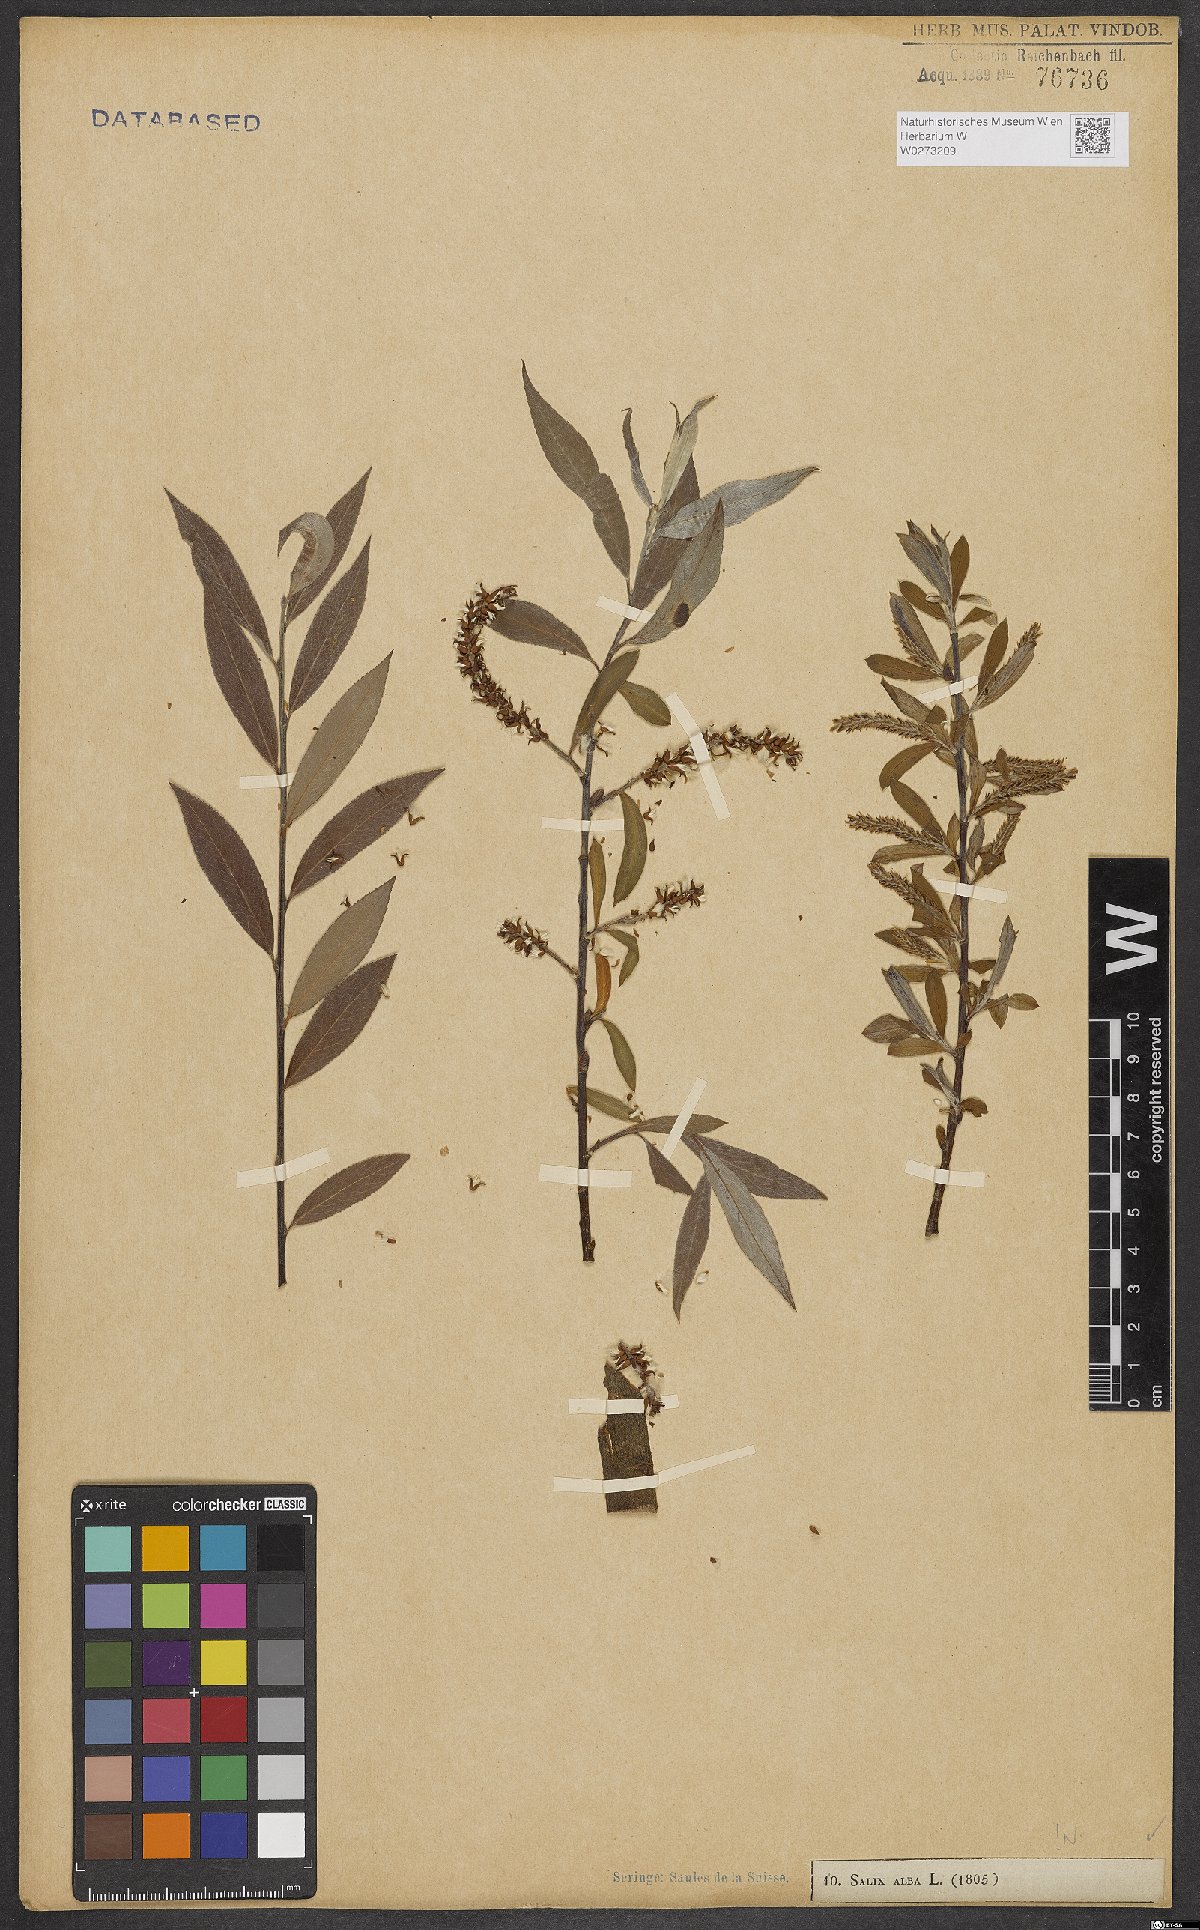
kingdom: Plantae
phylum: Tracheophyta
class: Magnoliopsida
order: Malpighiales
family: Salicaceae
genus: Salix
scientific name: Salix alba
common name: White willow
